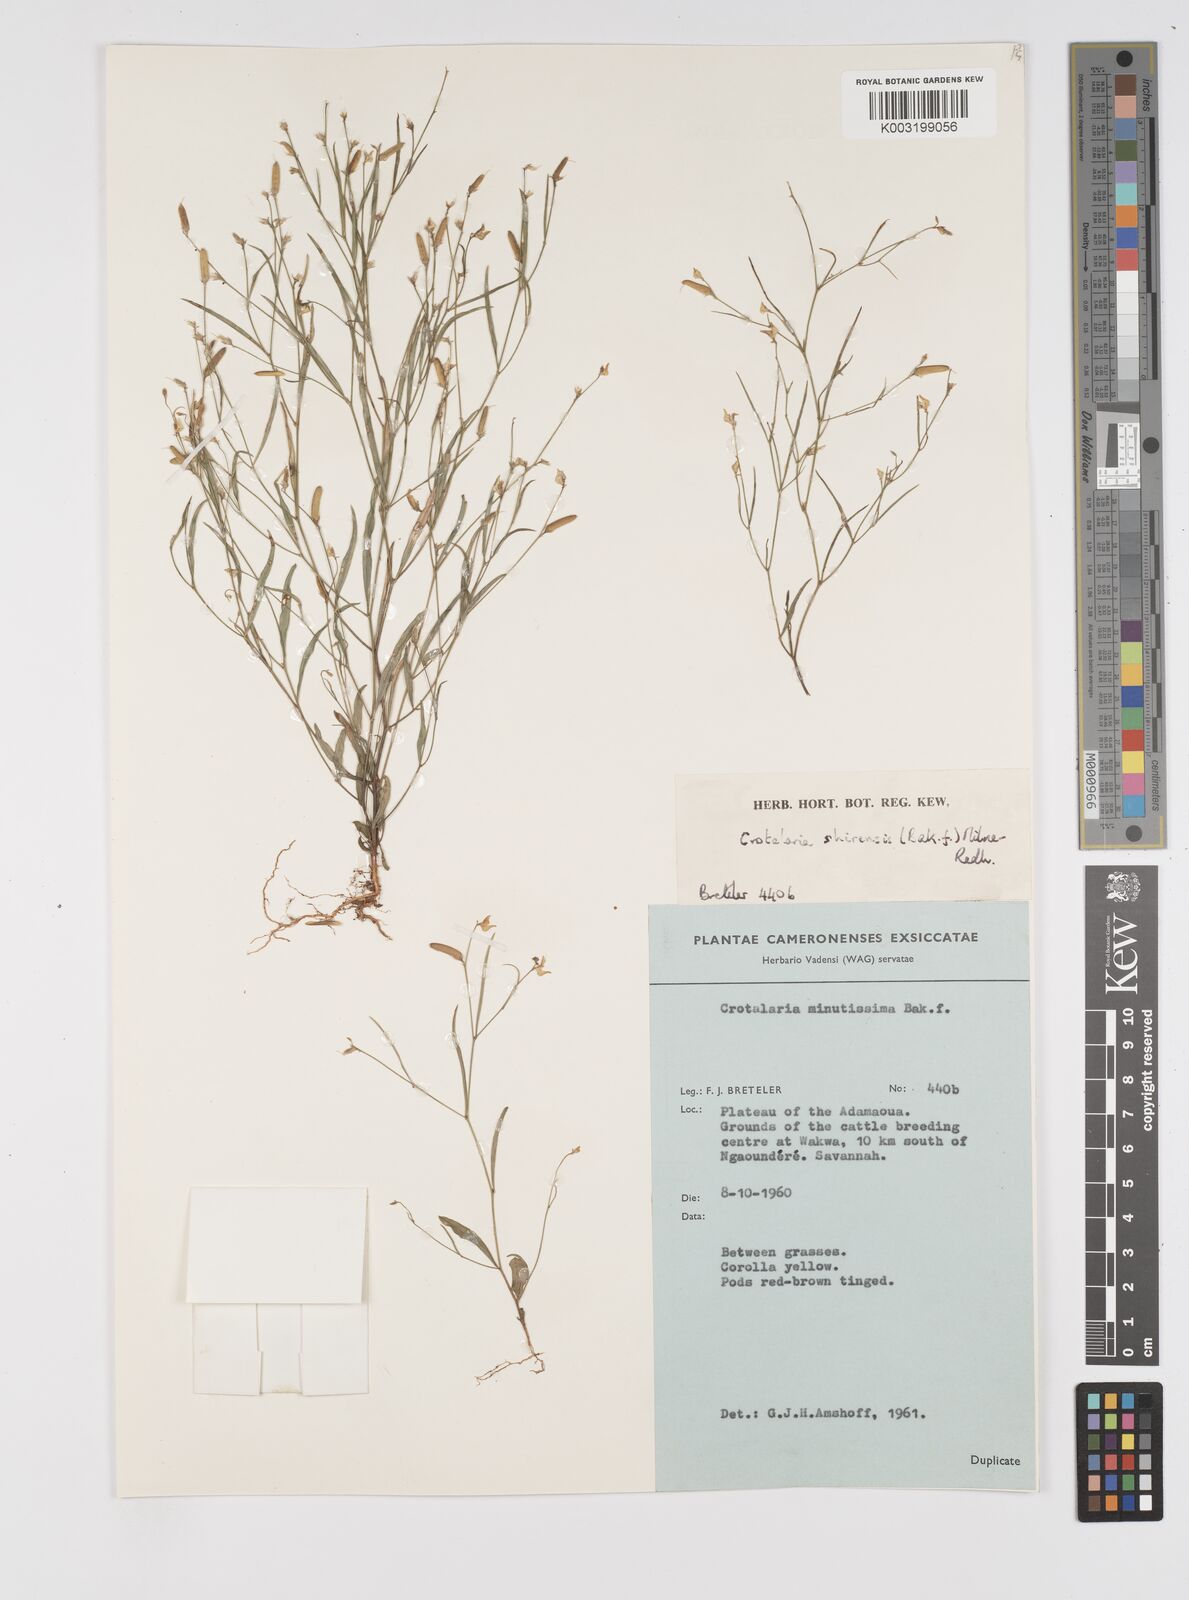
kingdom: Plantae
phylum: Tracheophyta
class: Magnoliopsida
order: Fabales
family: Fabaceae
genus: Crotalaria
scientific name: Crotalaria shirensis
